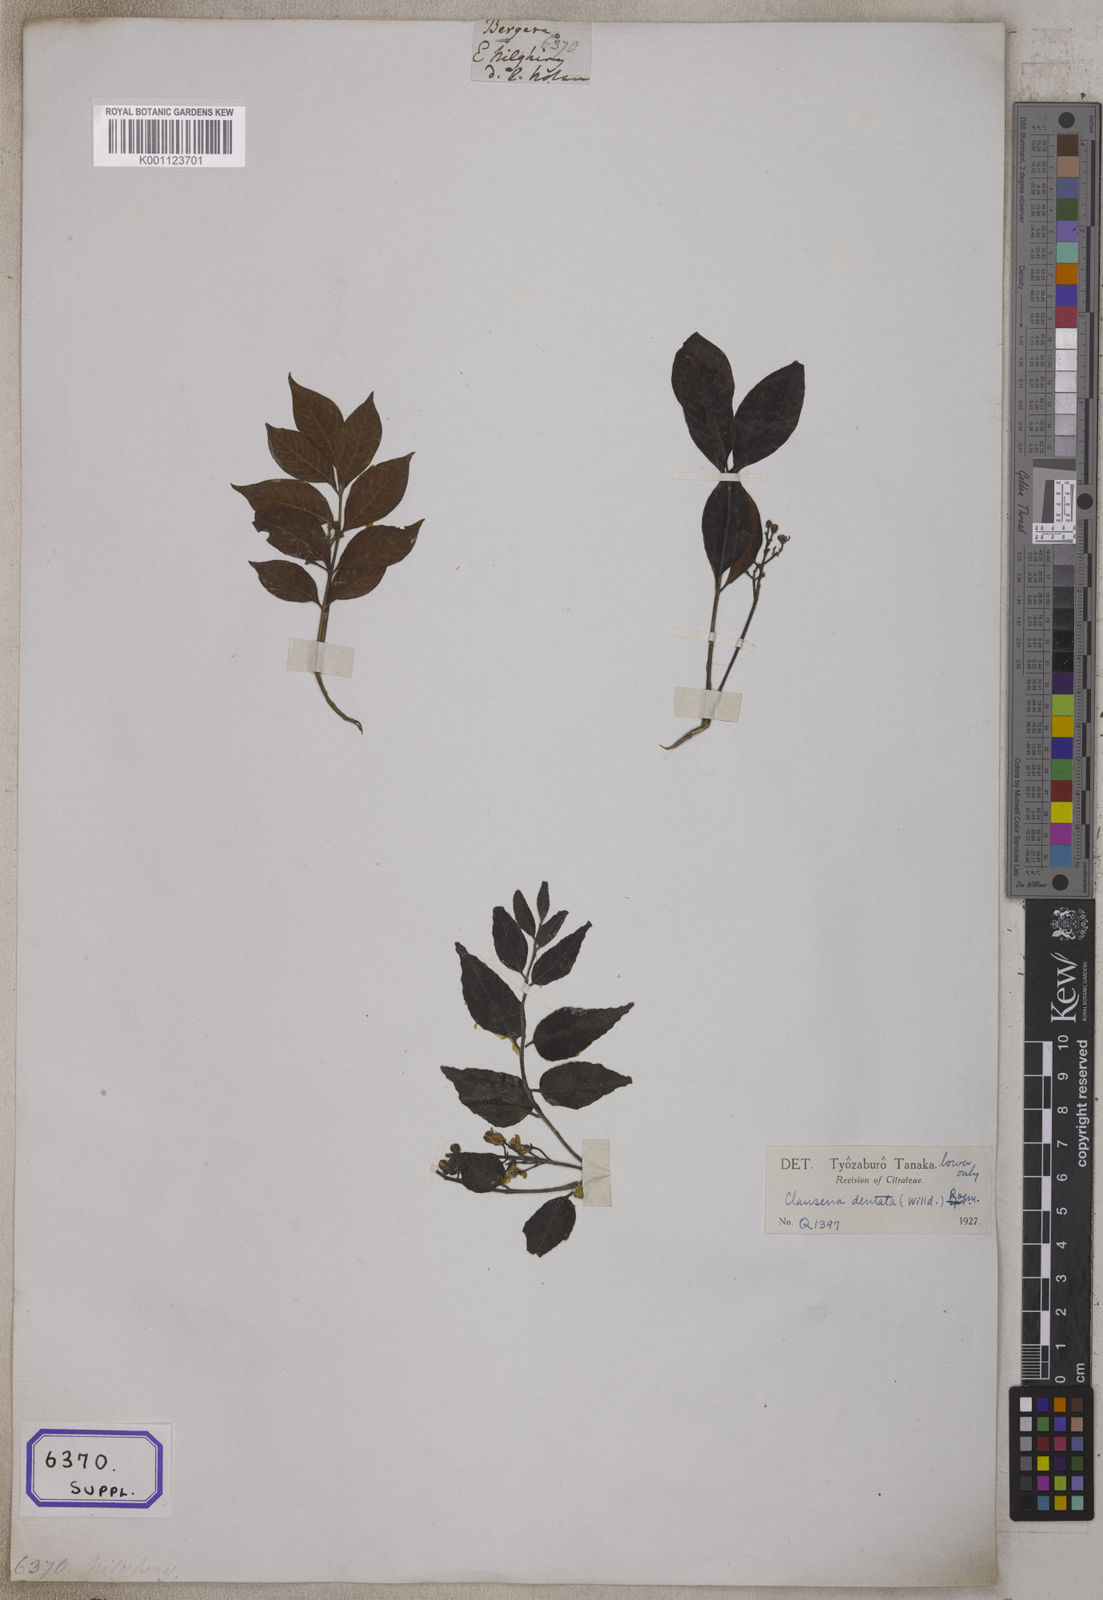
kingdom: Plantae
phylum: Tracheophyta
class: Magnoliopsida
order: Sapindales
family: Rutaceae
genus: Murraya
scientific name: Murraya koenigii
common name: Curry-plant
